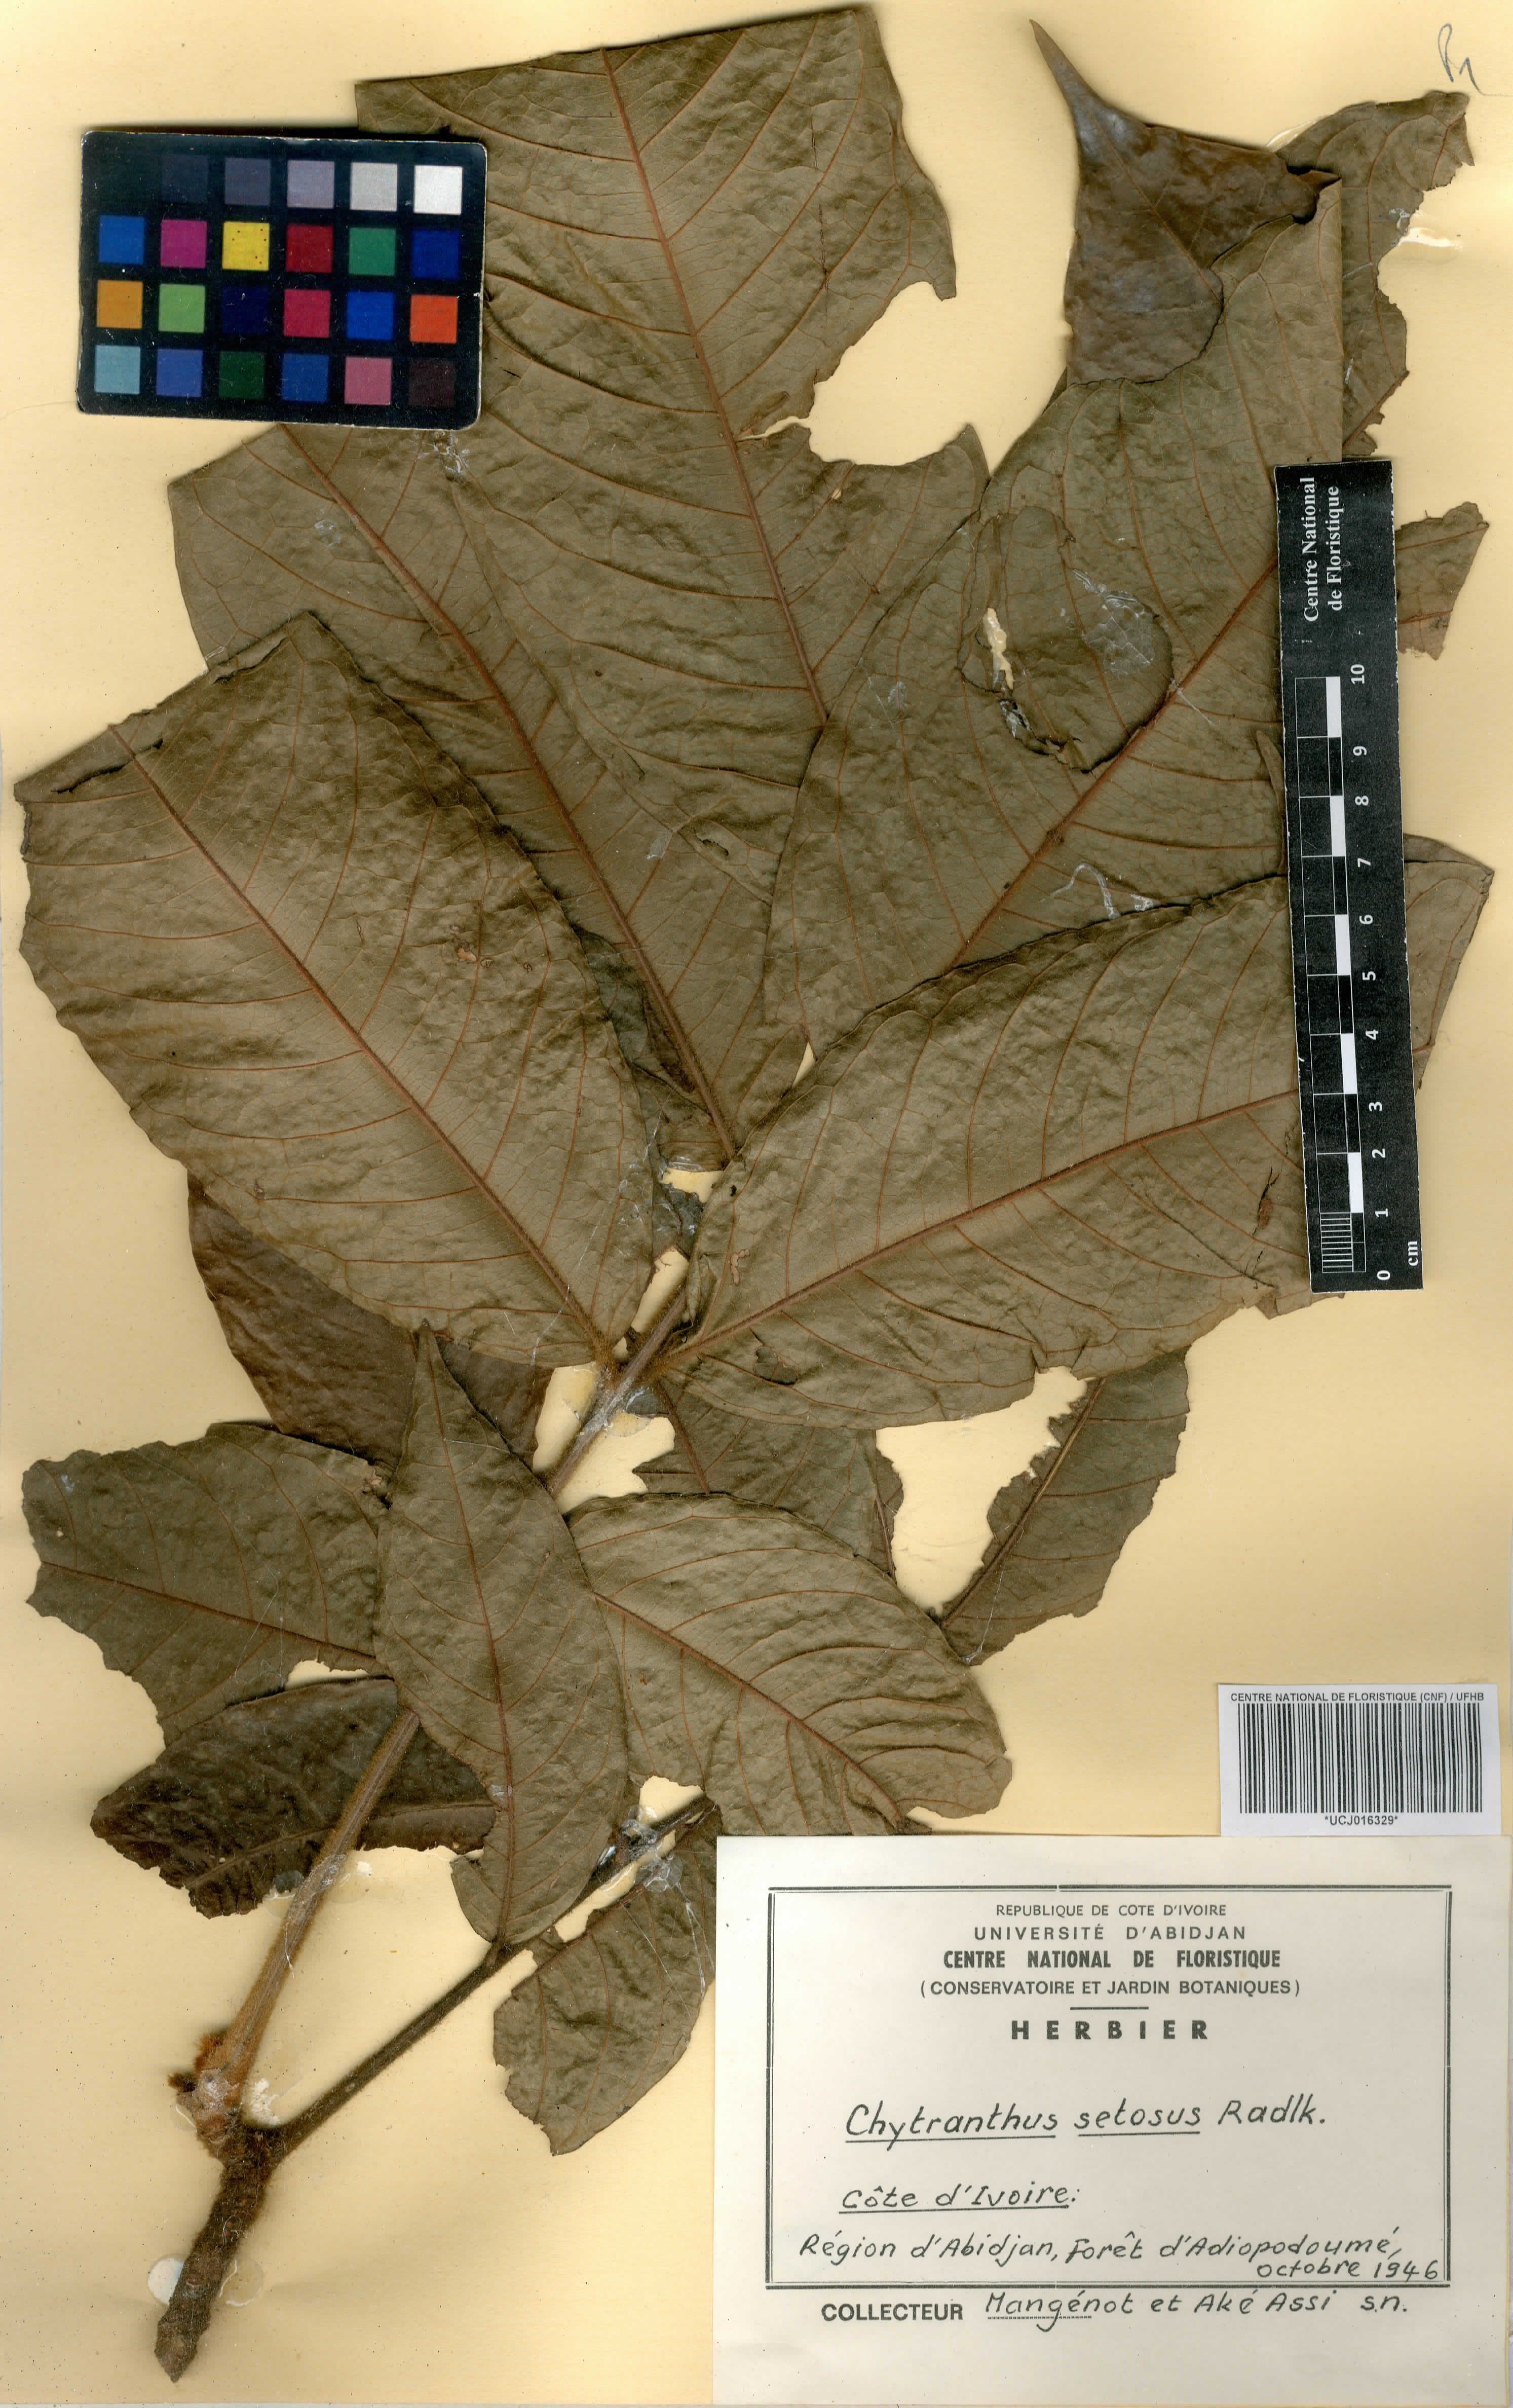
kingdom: Plantae
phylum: Tracheophyta
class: Magnoliopsida
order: Sapindales
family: Sapindaceae
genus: Chytranthus
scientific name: Chytranthus setosus
